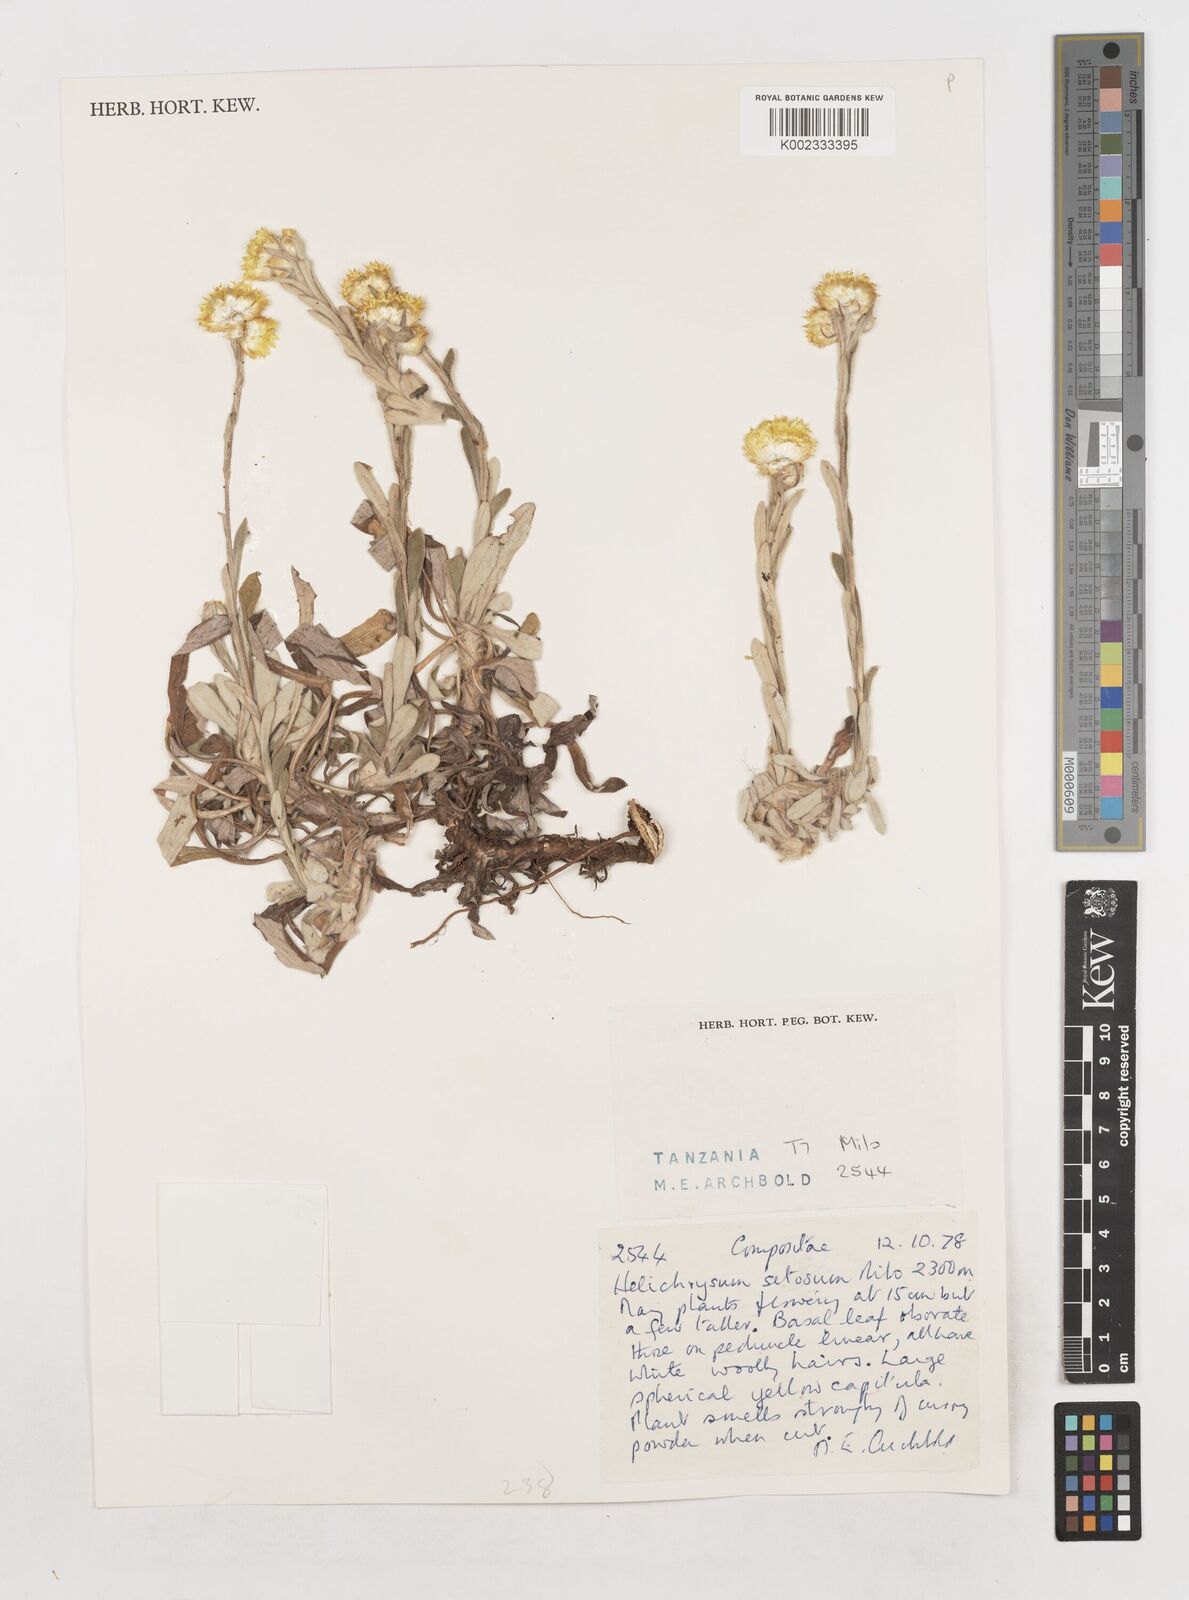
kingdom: Plantae
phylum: Tracheophyta
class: Magnoliopsida
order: Asterales
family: Asteraceae
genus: Helichrysum
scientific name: Helichrysum setosum
